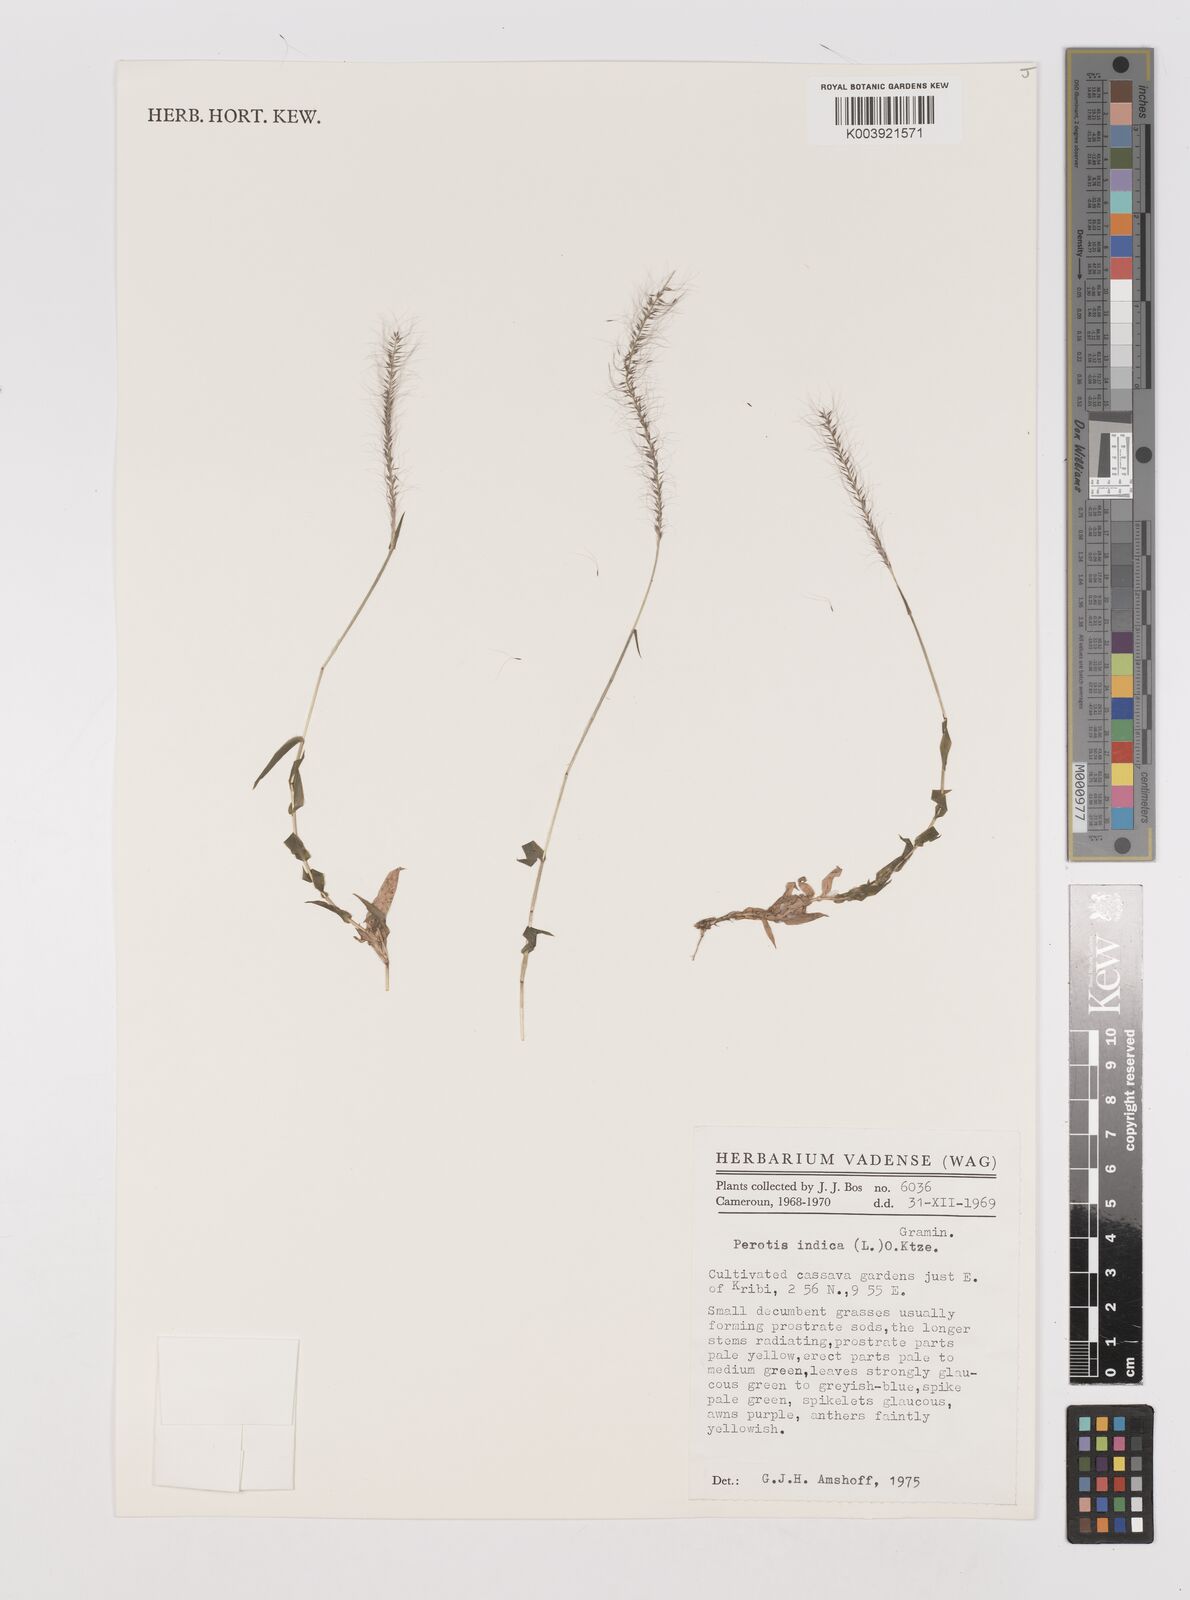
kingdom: Plantae
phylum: Tracheophyta
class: Liliopsida
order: Poales
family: Poaceae
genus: Perotis
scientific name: Perotis indica
